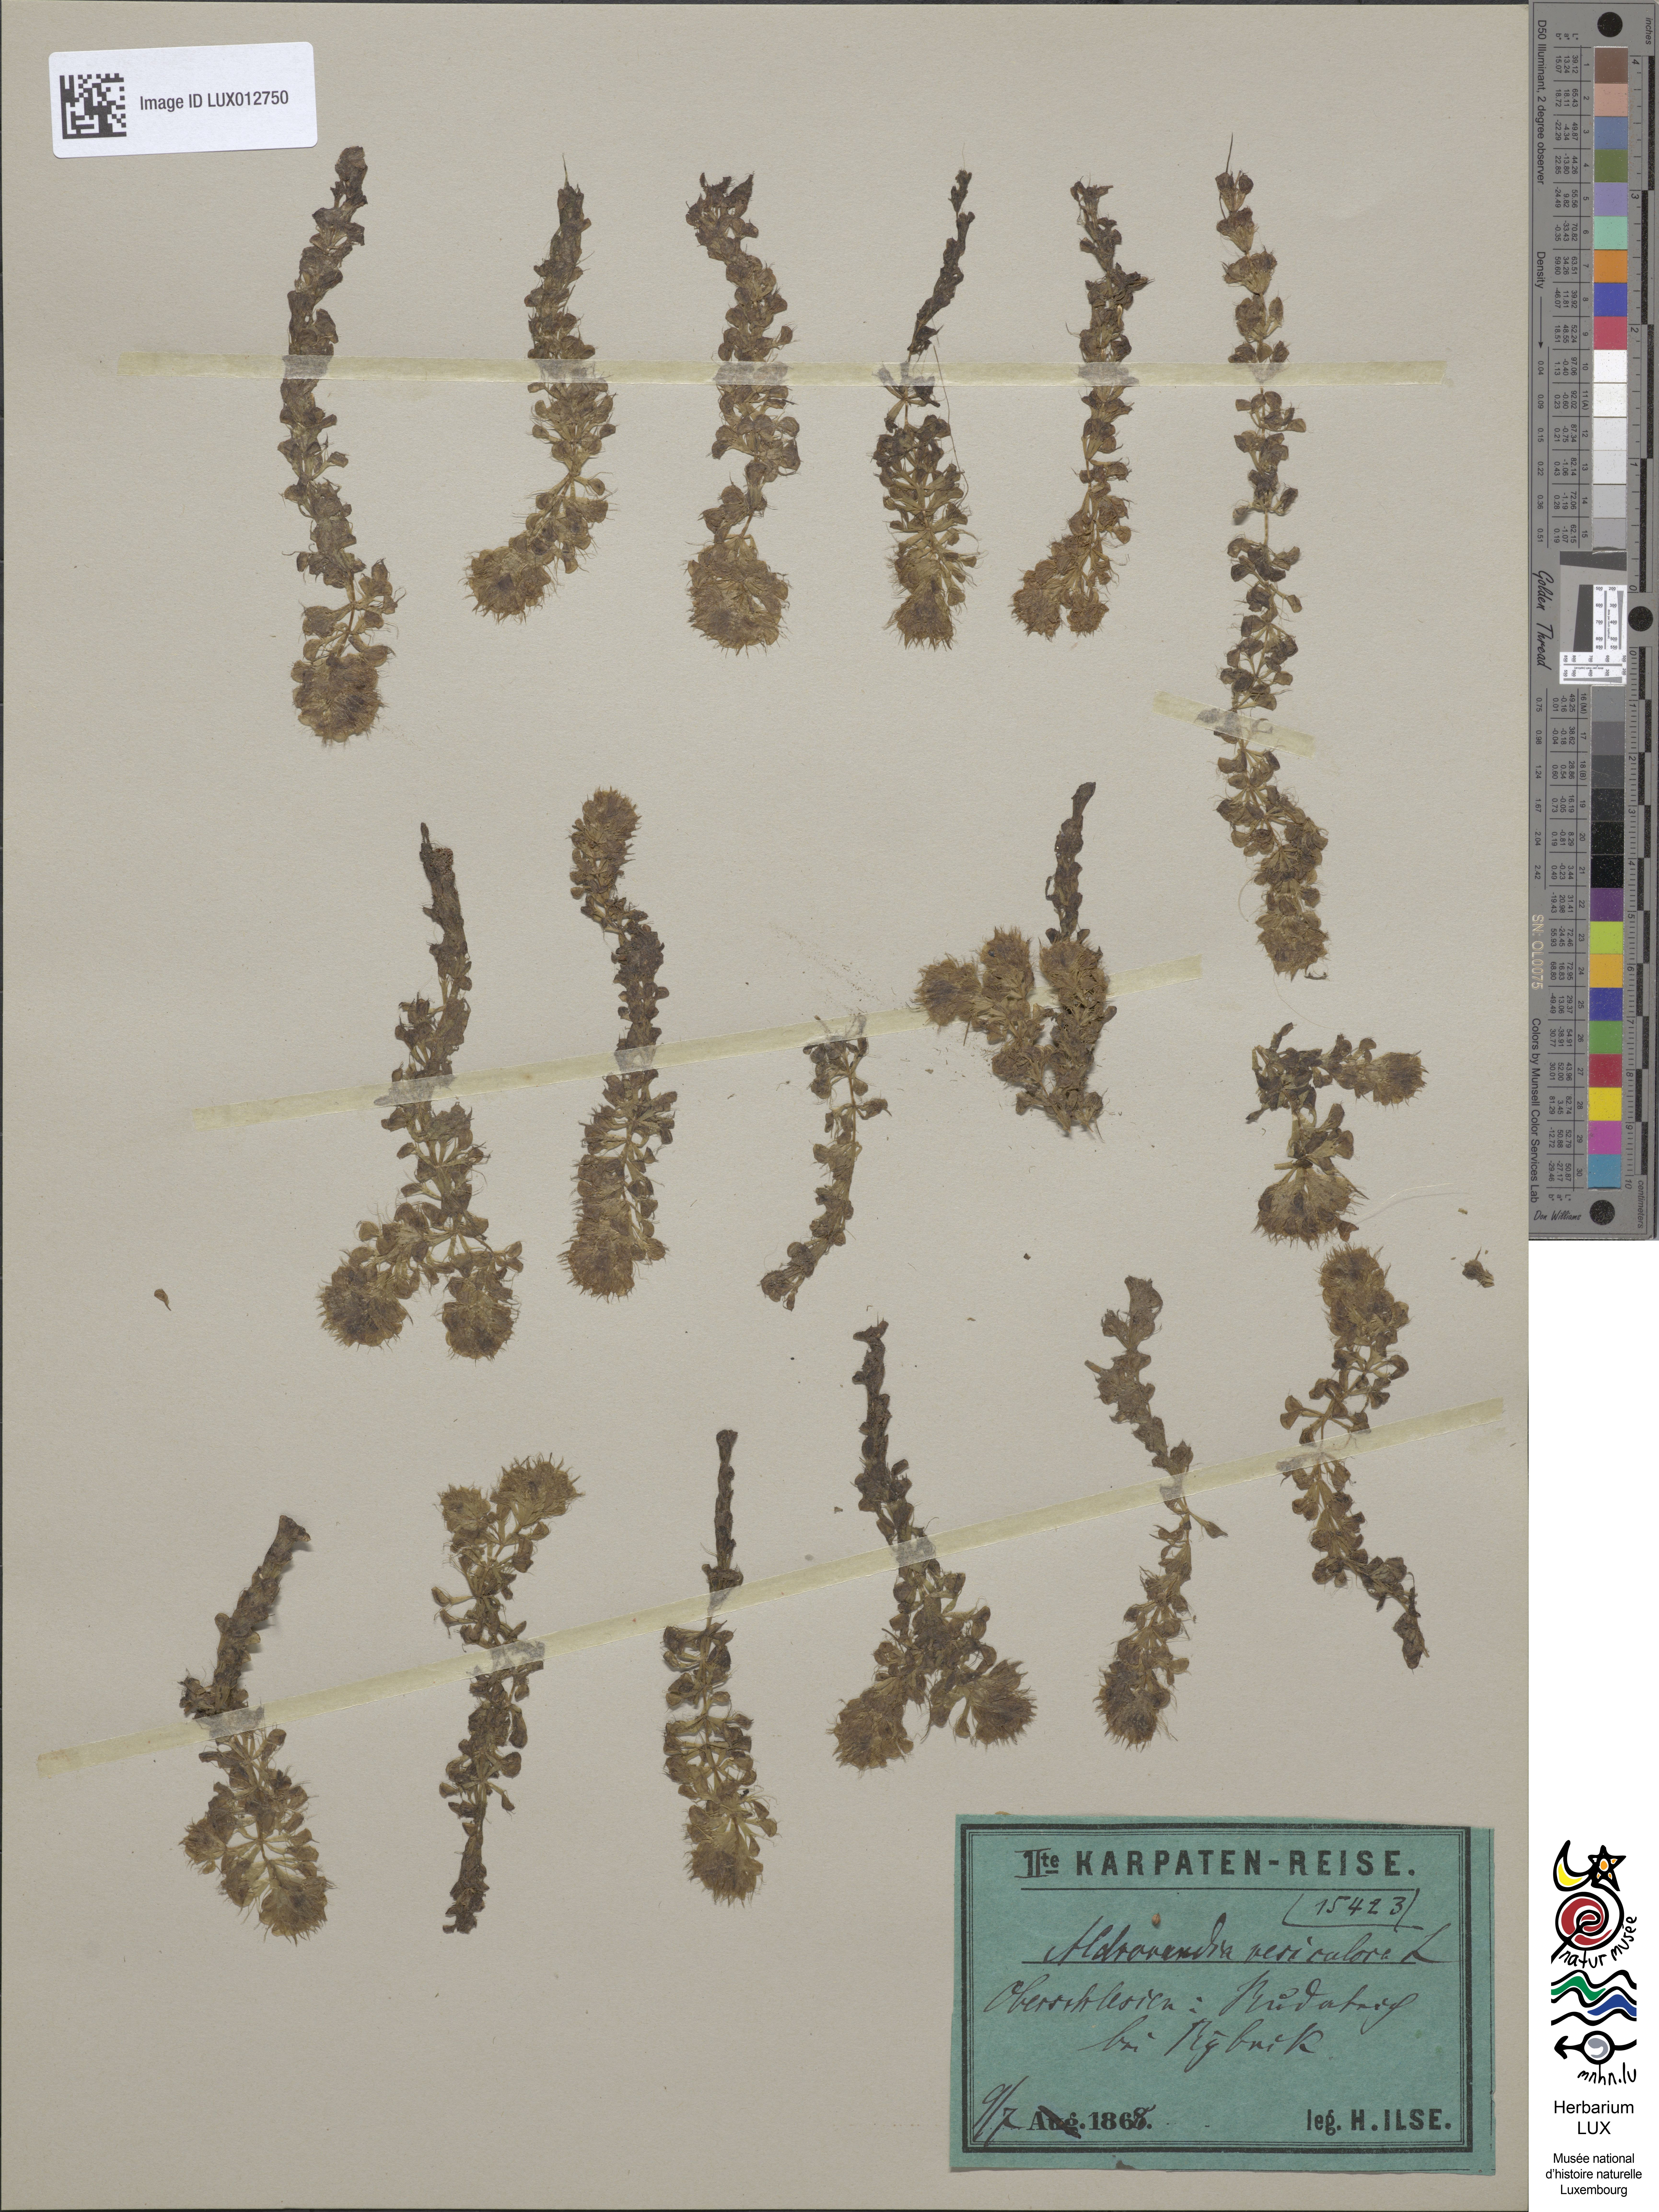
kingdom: Plantae
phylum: Tracheophyta
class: Magnoliopsida
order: Caryophyllales
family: Droseraceae
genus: Aldrovanda
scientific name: Aldrovanda vesiculosa
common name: Waterwheel plant
